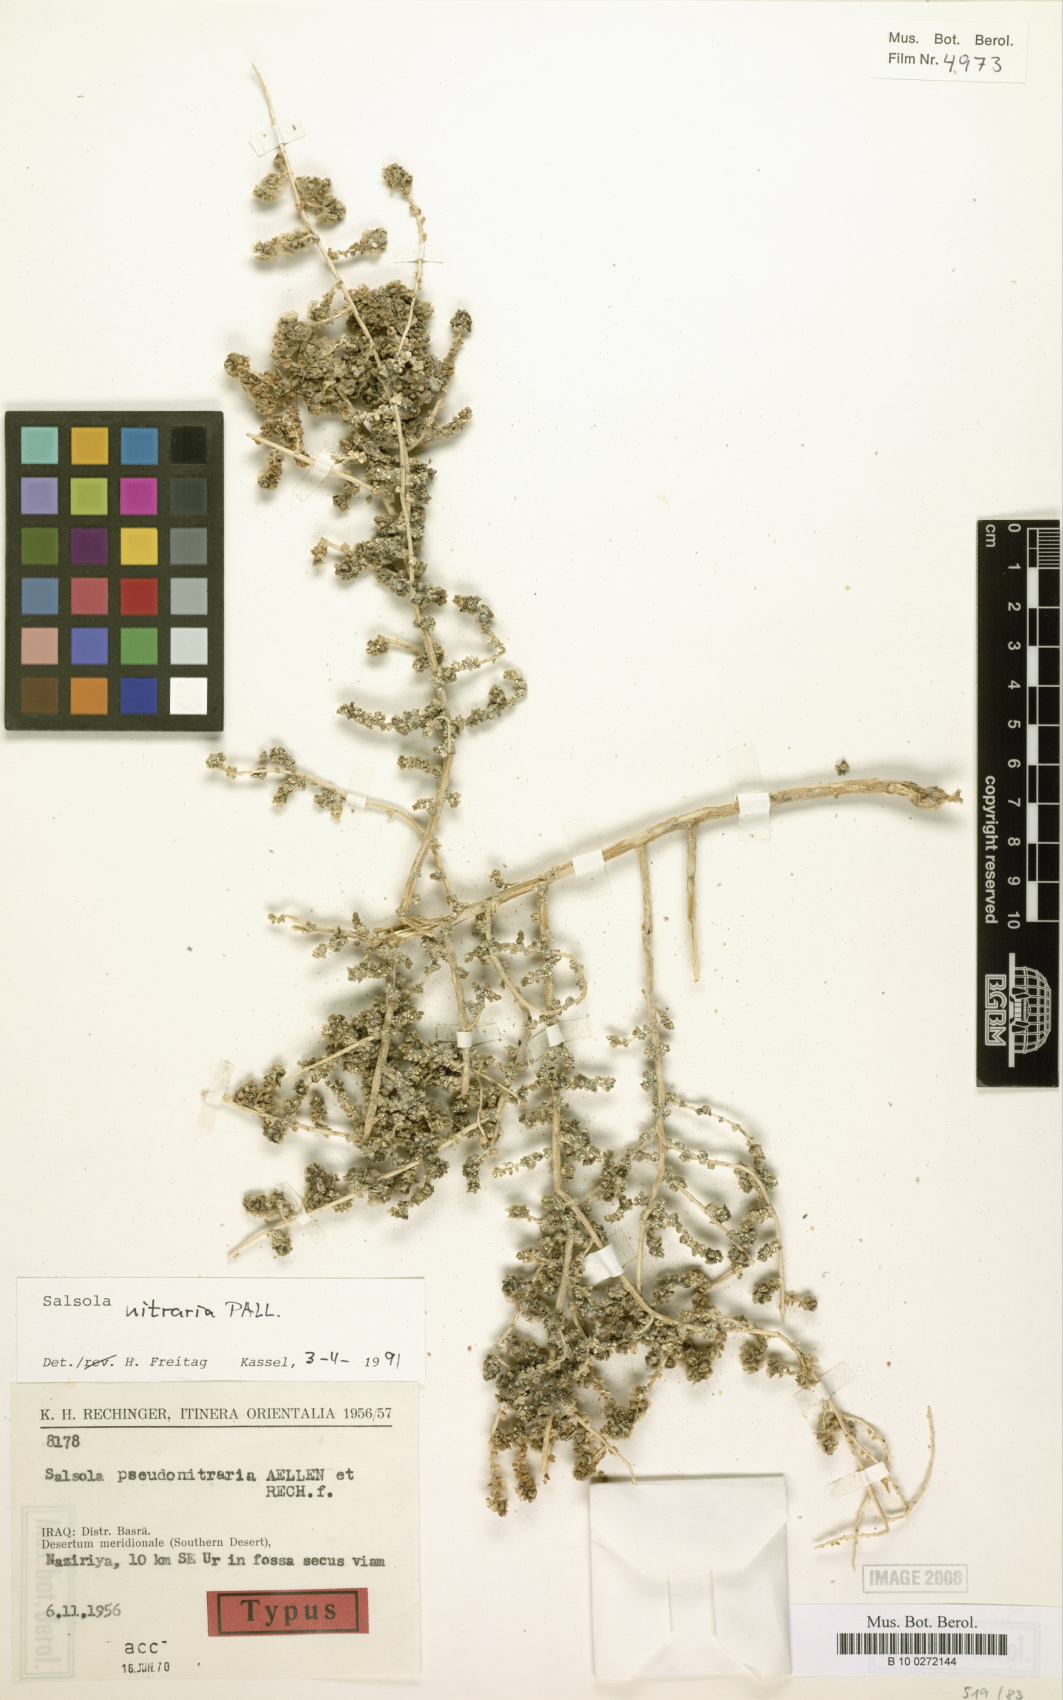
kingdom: Plantae
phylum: Tracheophyta
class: Magnoliopsida
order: Caryophyllales
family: Amaranthaceae
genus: Nitrosalsola
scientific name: Nitrosalsola nitraria
